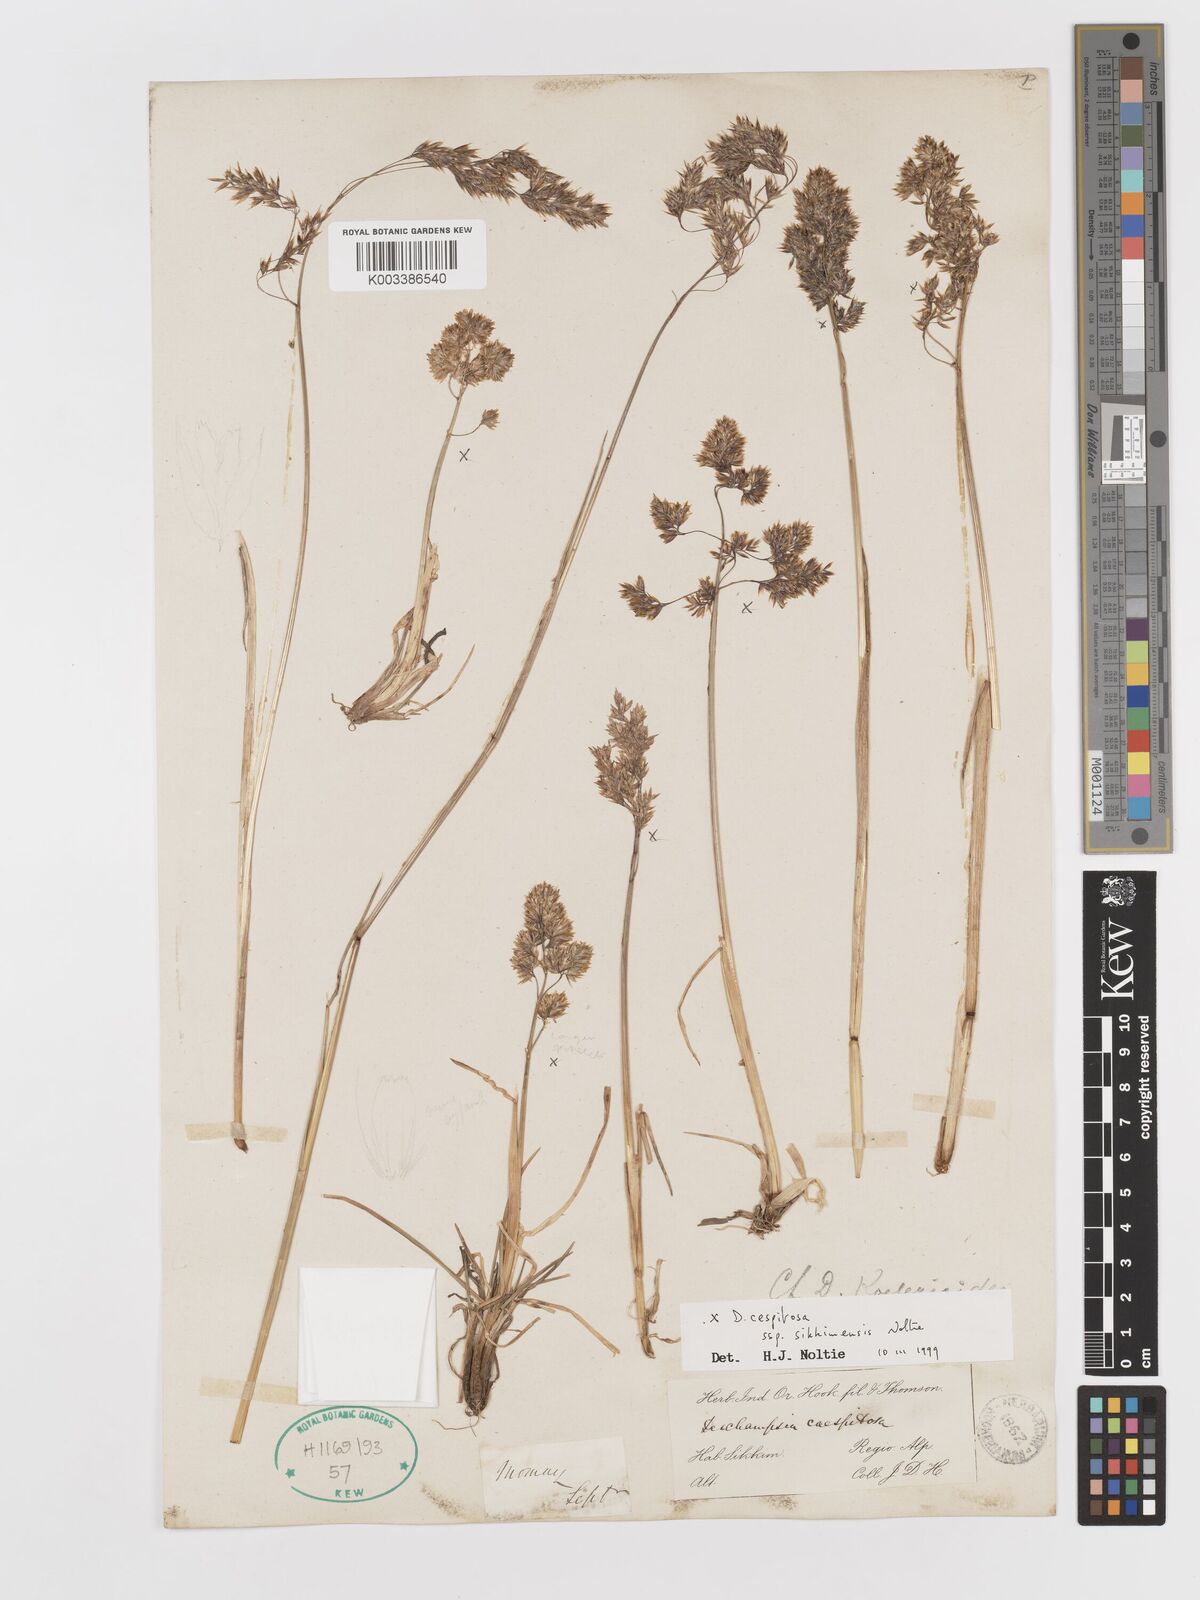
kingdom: Plantae
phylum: Tracheophyta
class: Liliopsida
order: Poales
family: Poaceae
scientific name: Poaceae
